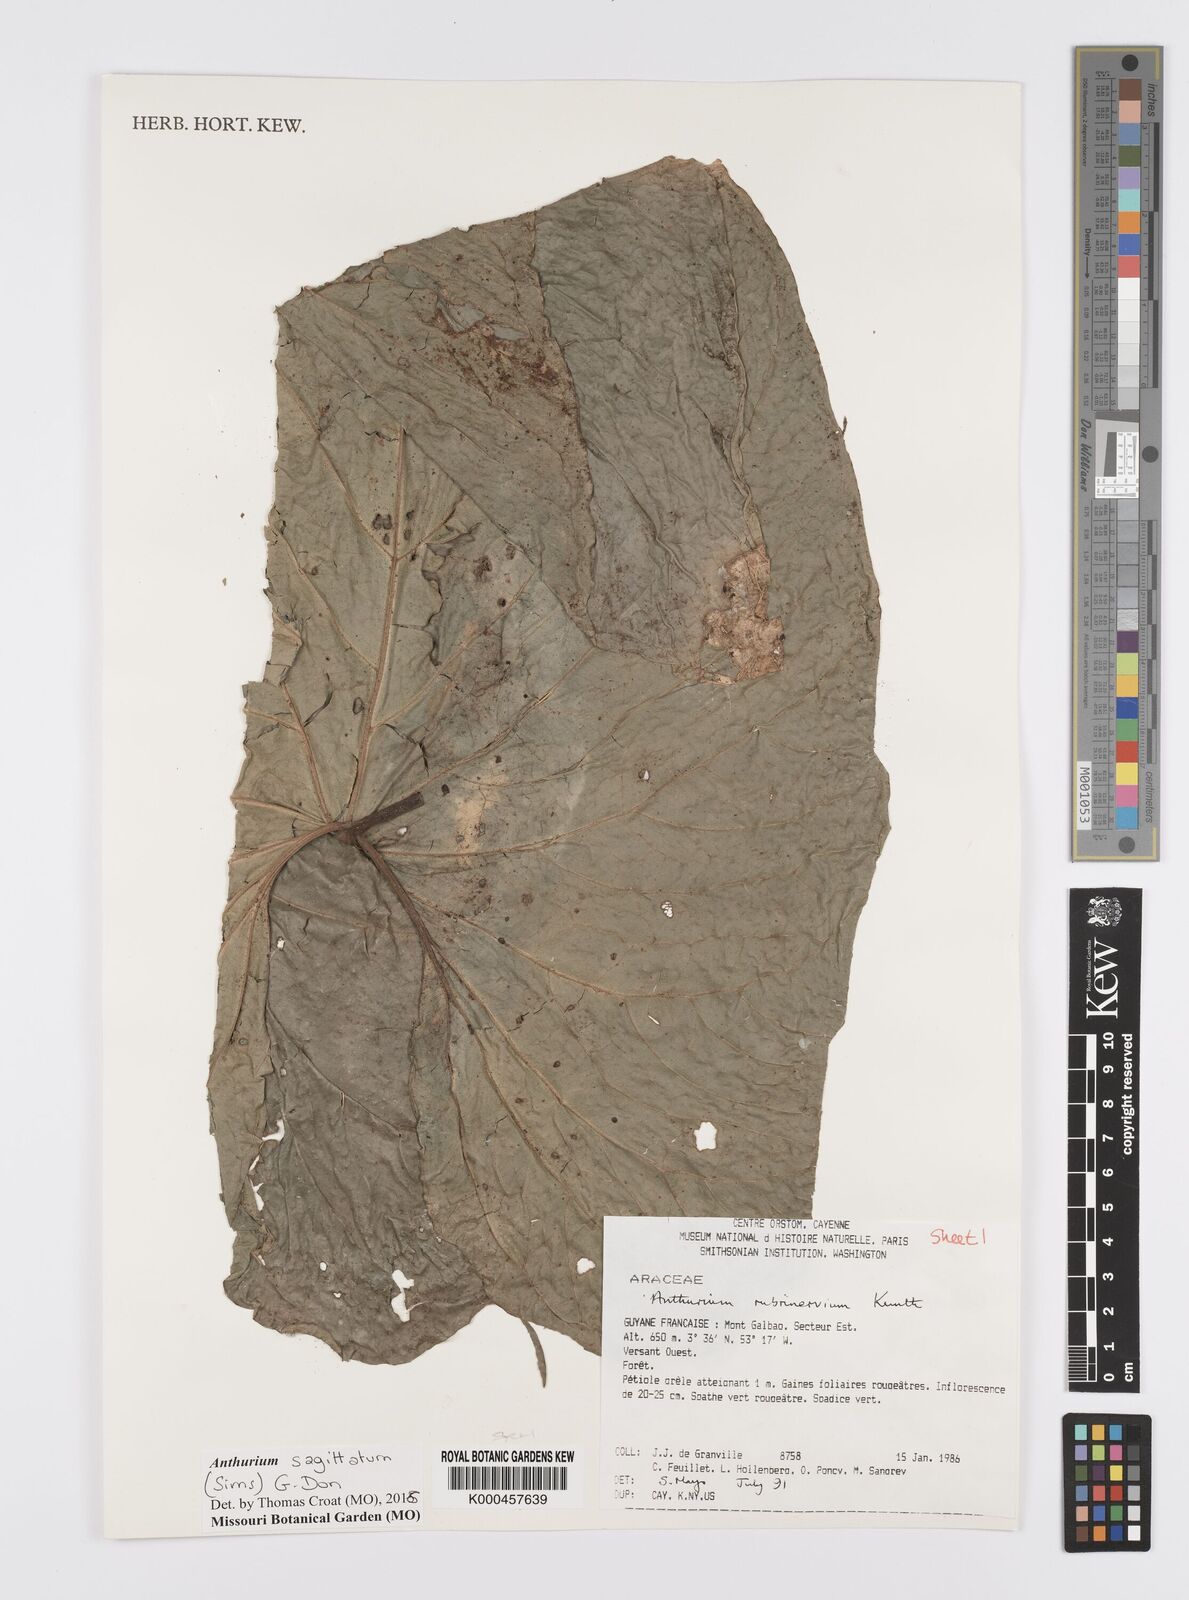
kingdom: Plantae
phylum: Tracheophyta
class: Liliopsida
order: Alismatales
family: Araceae
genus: Anthurium
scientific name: Anthurium sagittatum
